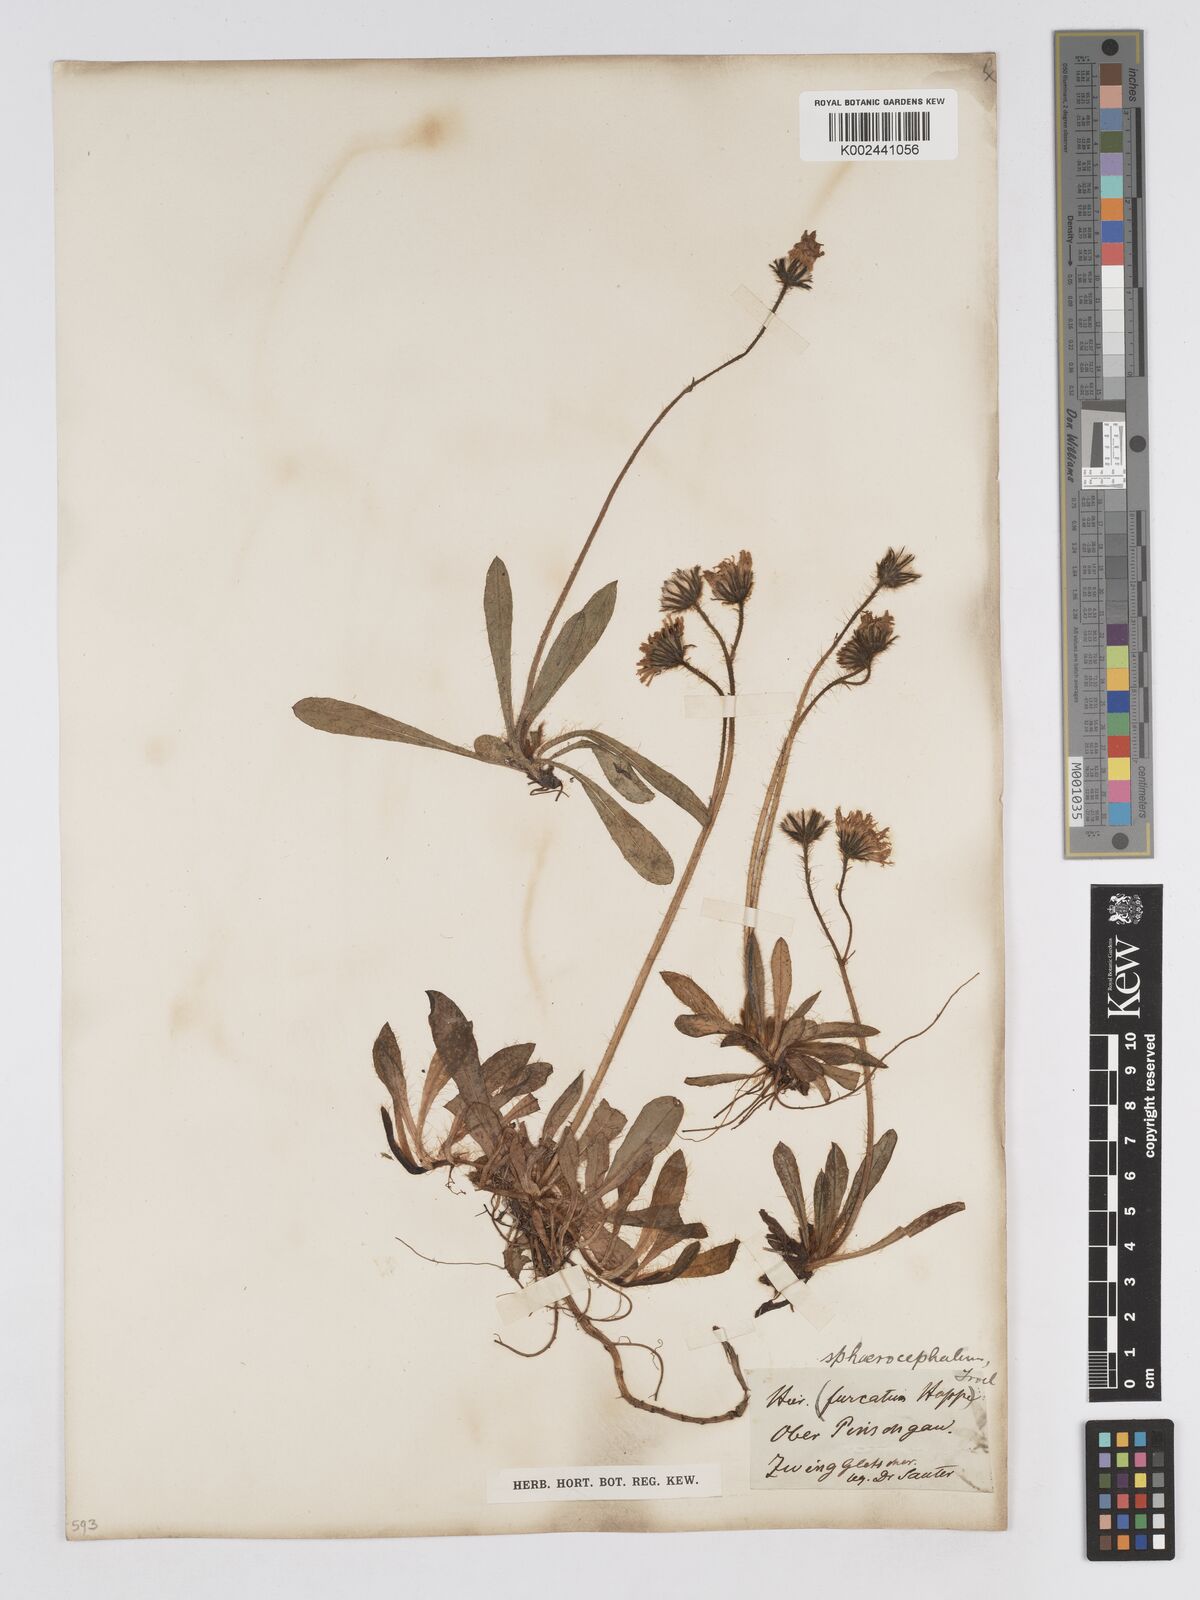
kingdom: Plantae
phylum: Tracheophyta
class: Magnoliopsida
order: Asterales
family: Asteraceae
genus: Pilosella
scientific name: Pilosella sphaerocephala
